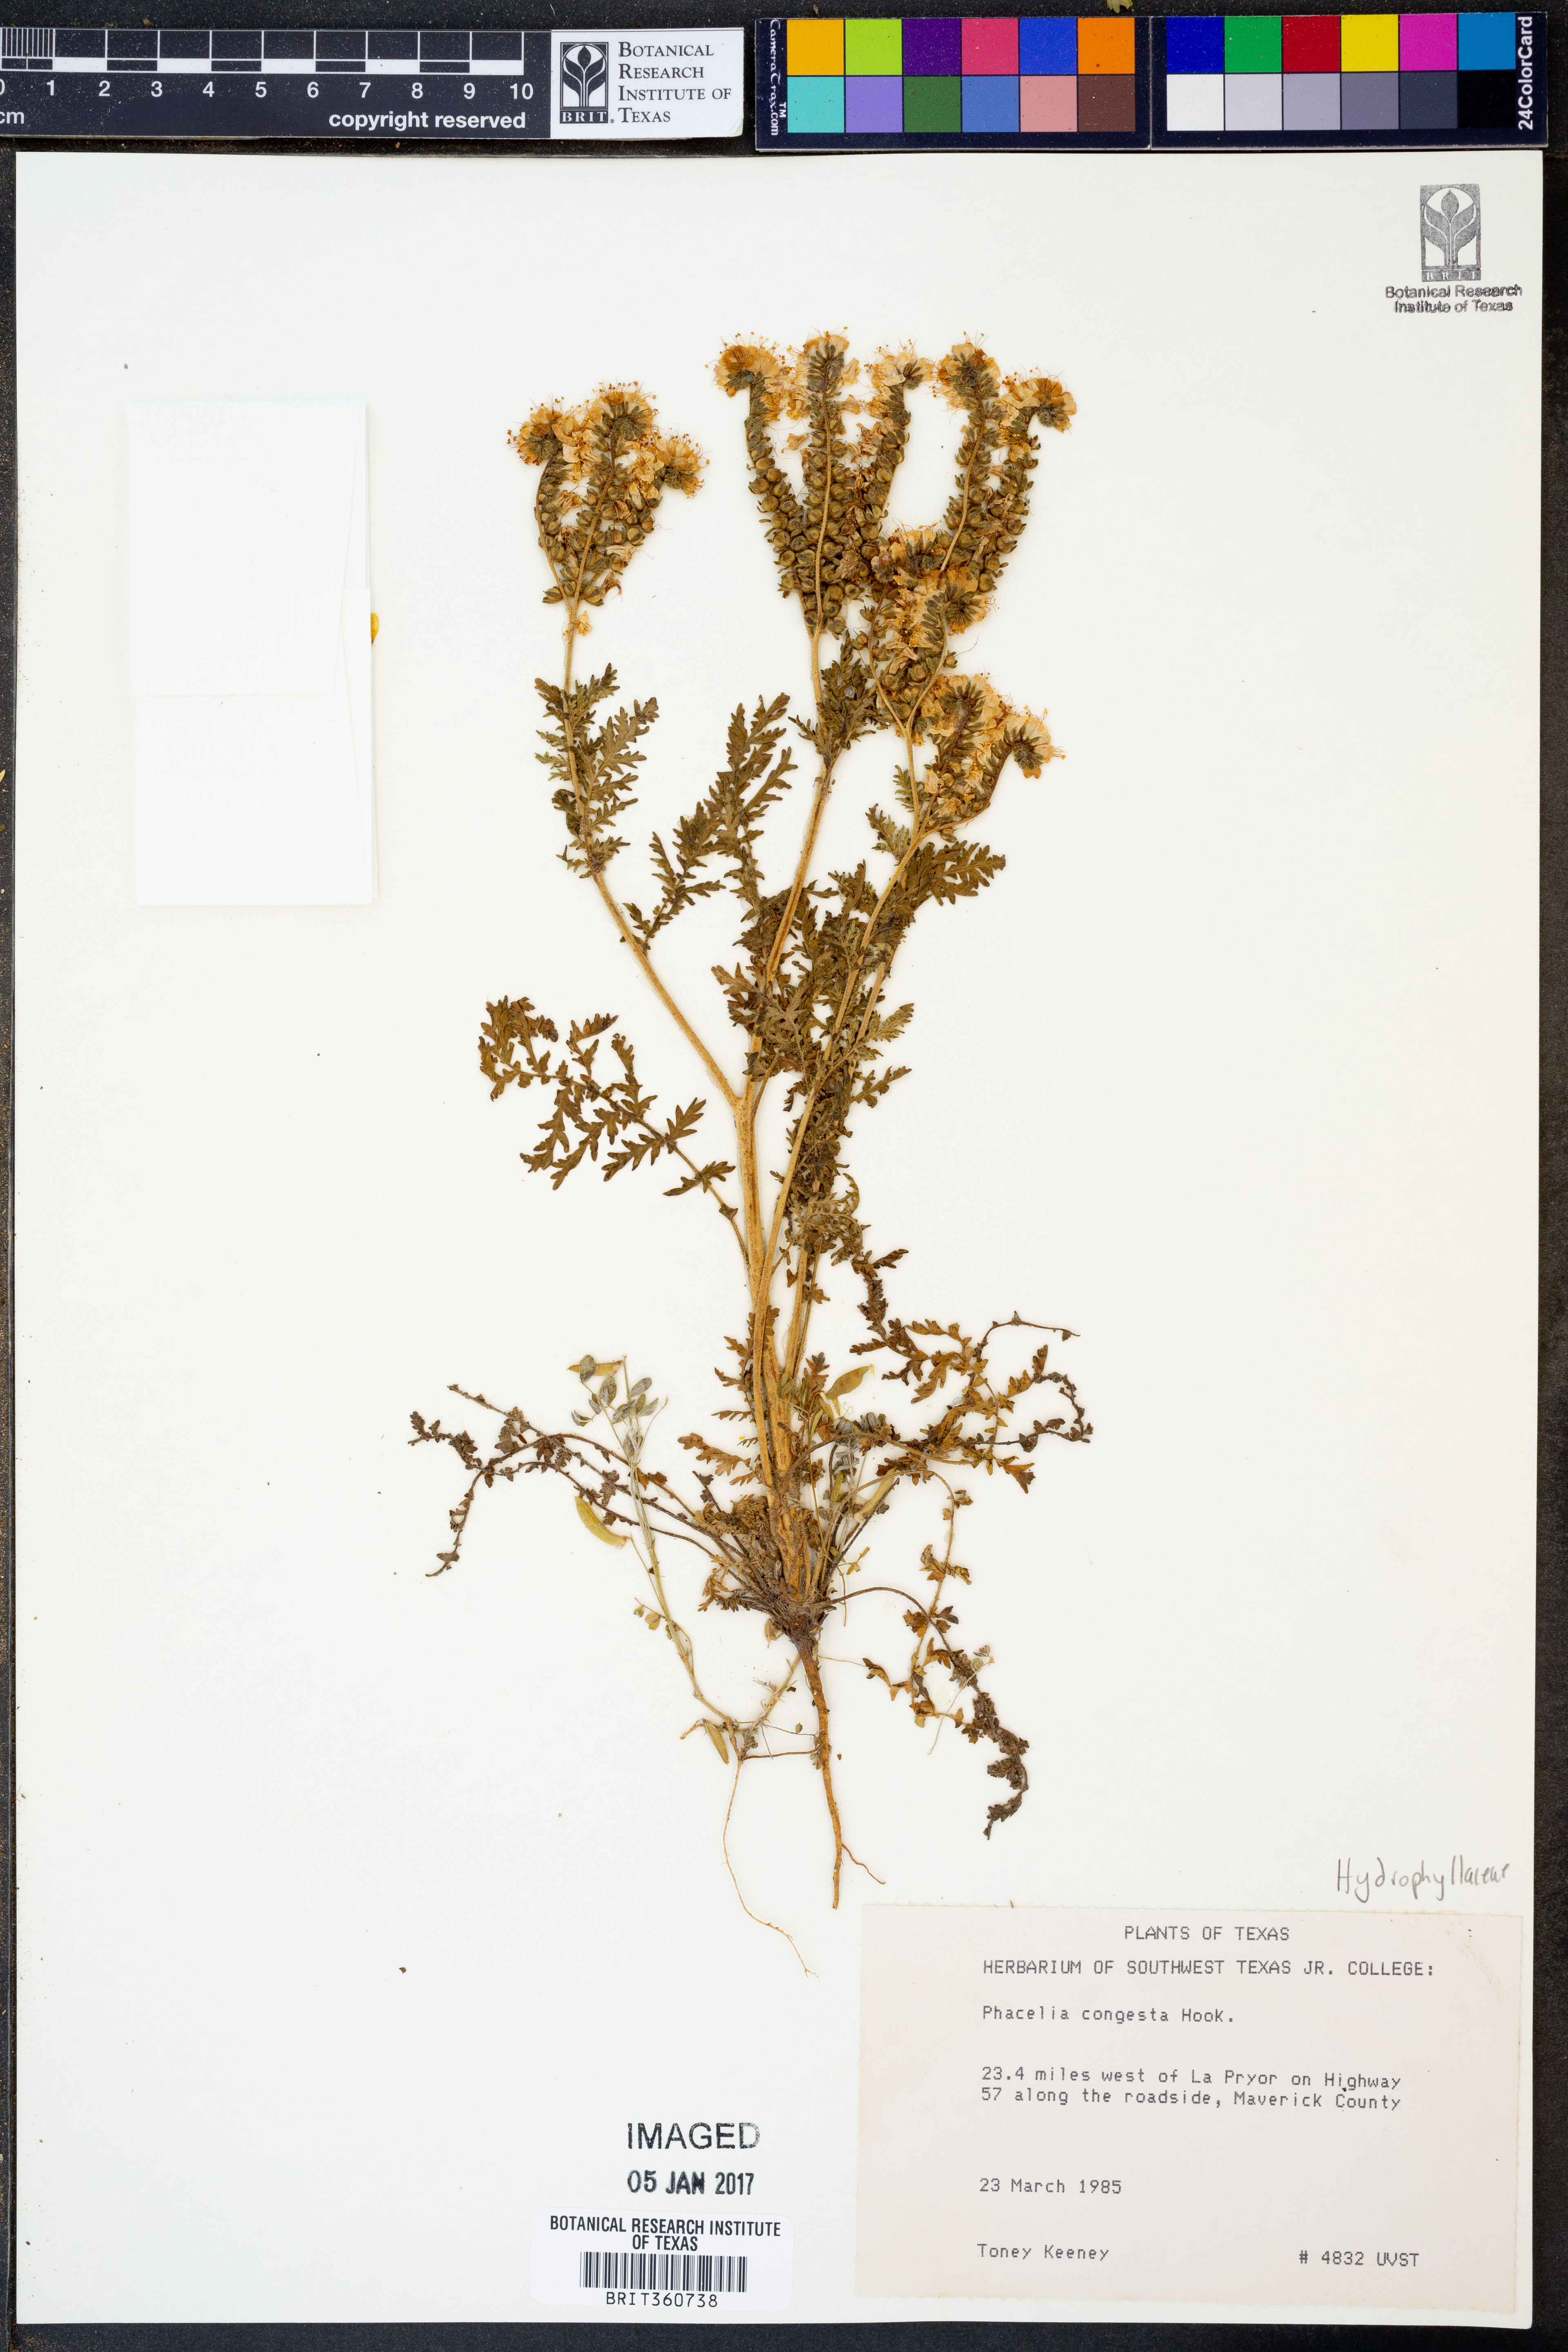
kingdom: Plantae
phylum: Tracheophyta
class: Magnoliopsida
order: Boraginales
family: Hydrophyllaceae
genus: Phacelia
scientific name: Phacelia congesta
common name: Blue curls
